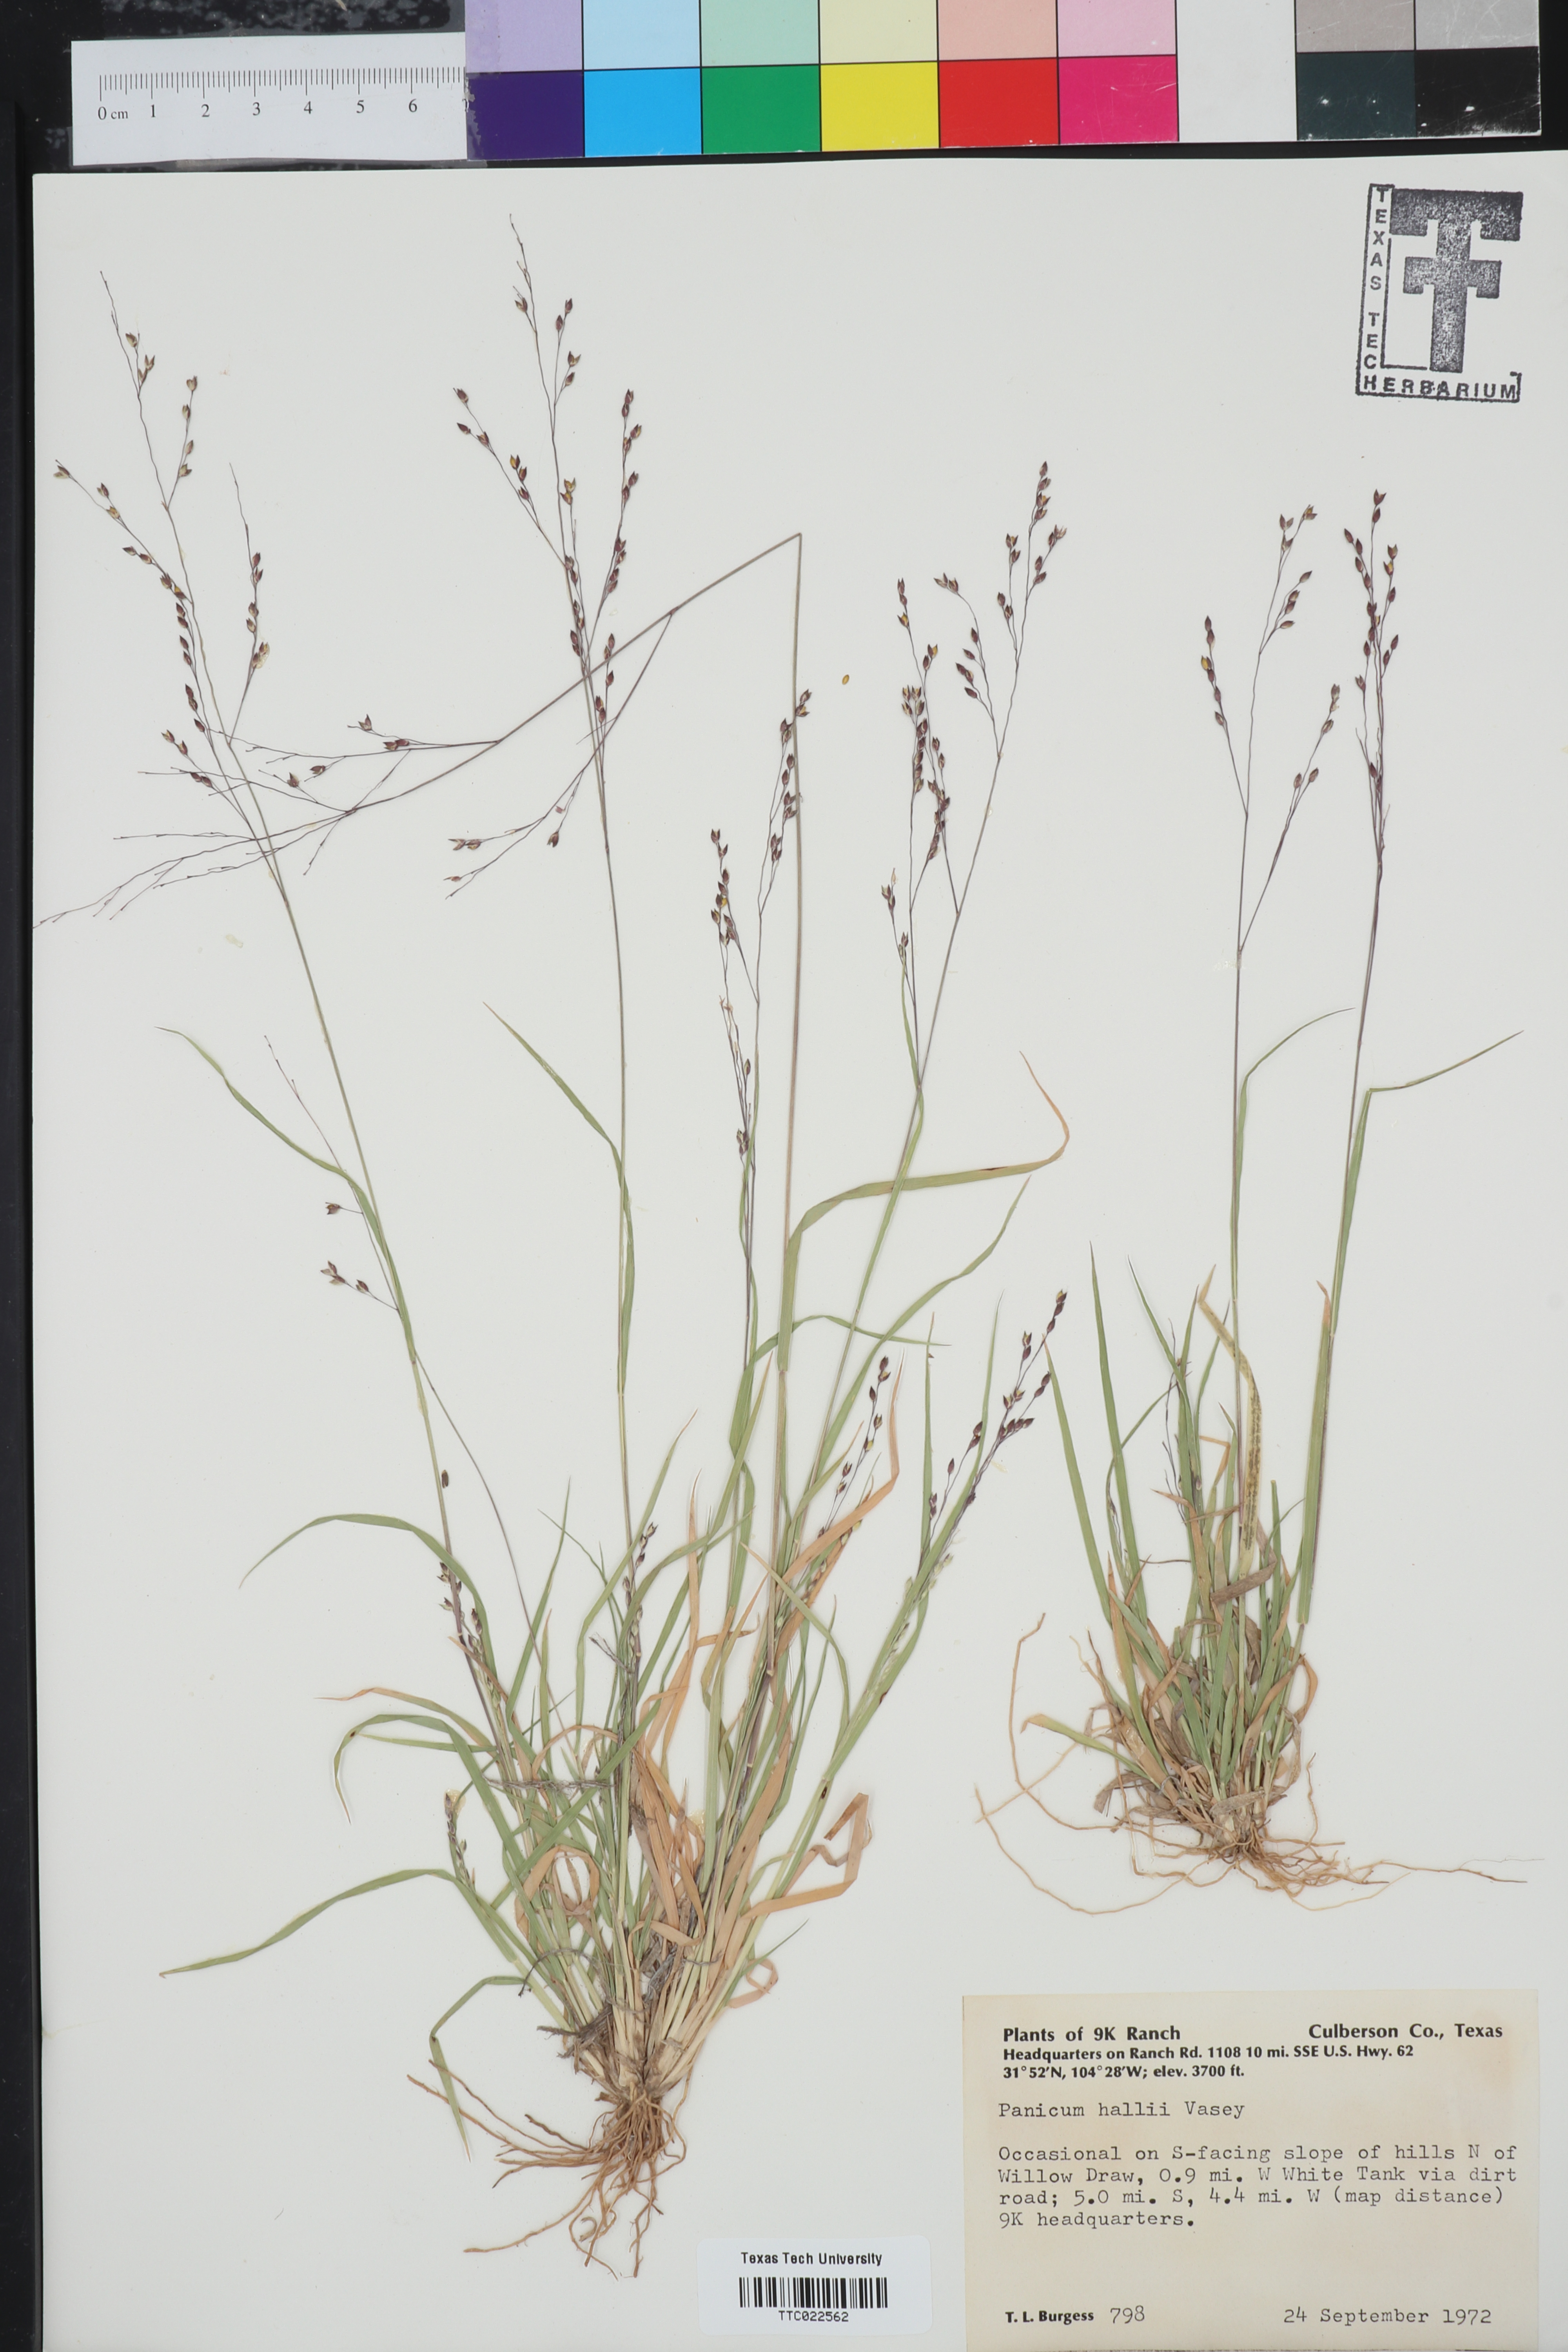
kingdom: Plantae
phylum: Tracheophyta
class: Liliopsida
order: Poales
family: Poaceae
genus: Panicum
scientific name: Panicum hallii
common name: Hall's witchgrass
